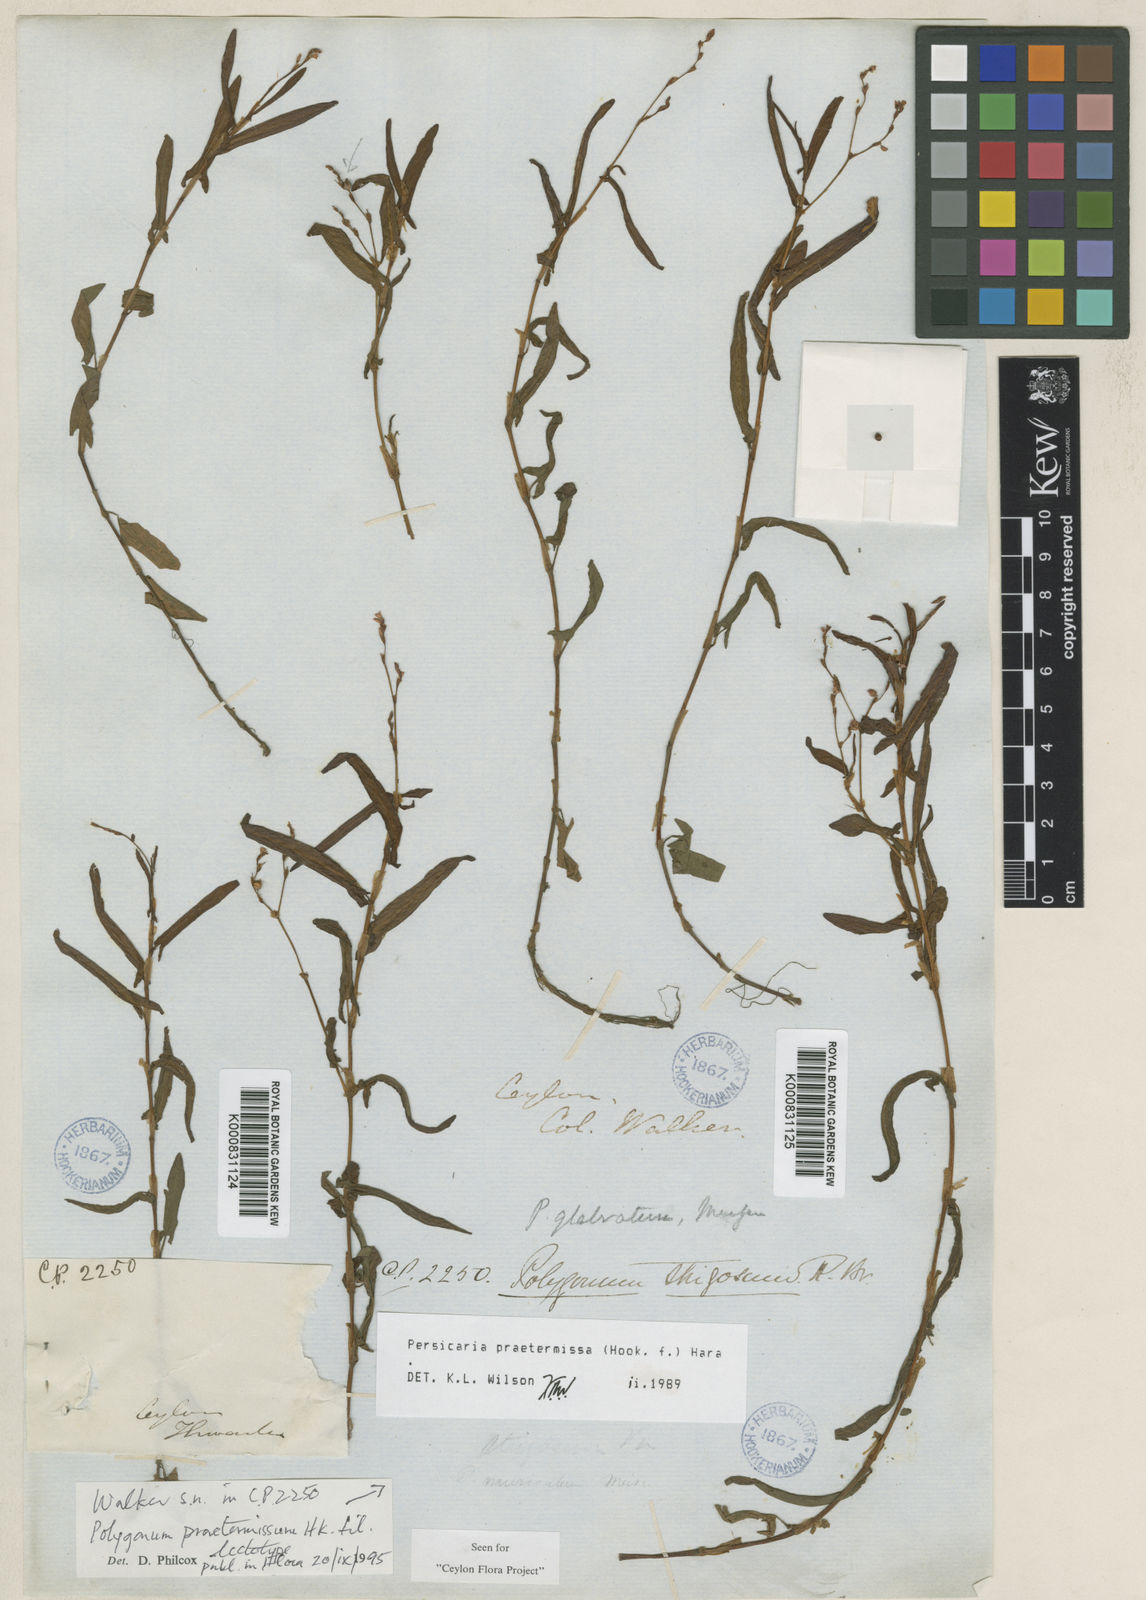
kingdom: Plantae
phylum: Tracheophyta
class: Magnoliopsida
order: Caryophyllales
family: Polygonaceae
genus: Persicaria
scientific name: Persicaria praetermissa
